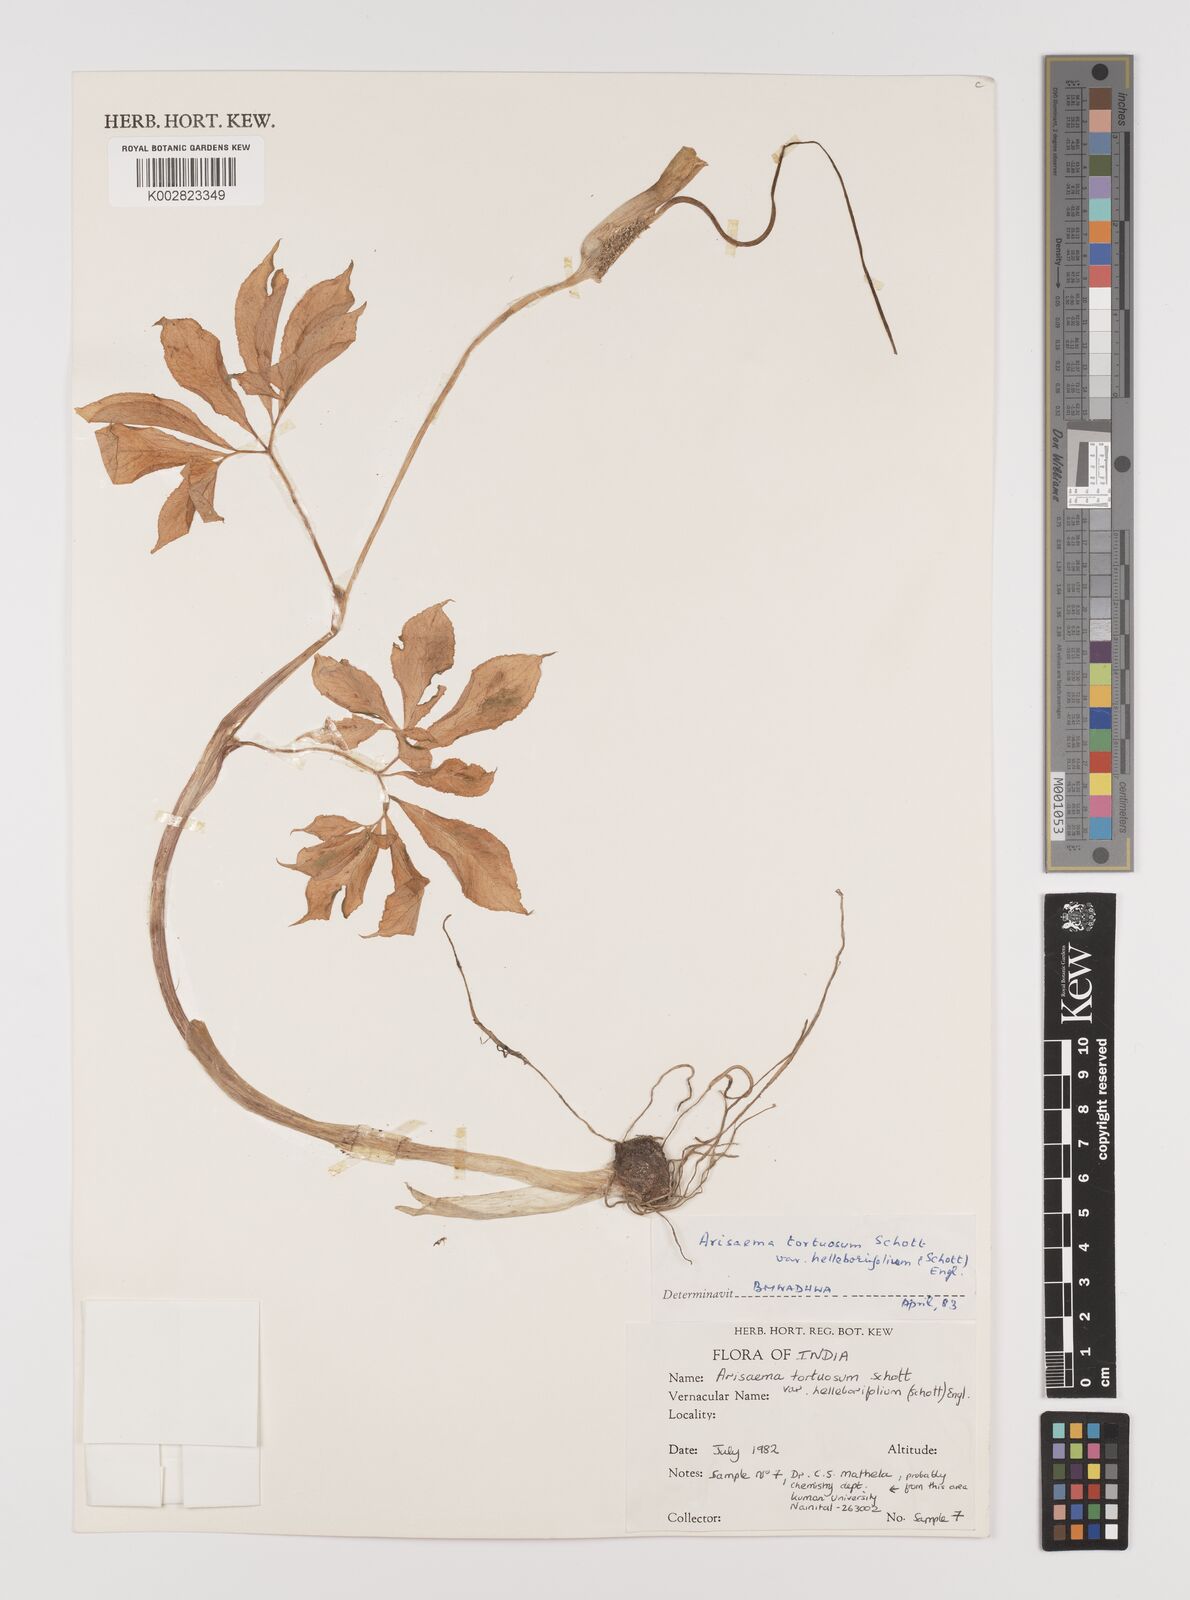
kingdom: Plantae
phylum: Tracheophyta
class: Liliopsida
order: Alismatales
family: Araceae
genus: Arisaema
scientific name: Arisaema tortuosum
